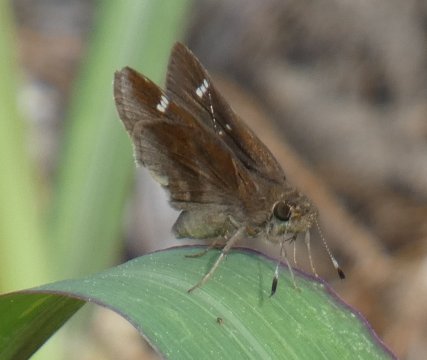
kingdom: Animalia
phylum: Arthropoda
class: Insecta
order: Lepidoptera
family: Hesperiidae
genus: Lerema
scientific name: Lerema accius
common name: Clouded Skipper
